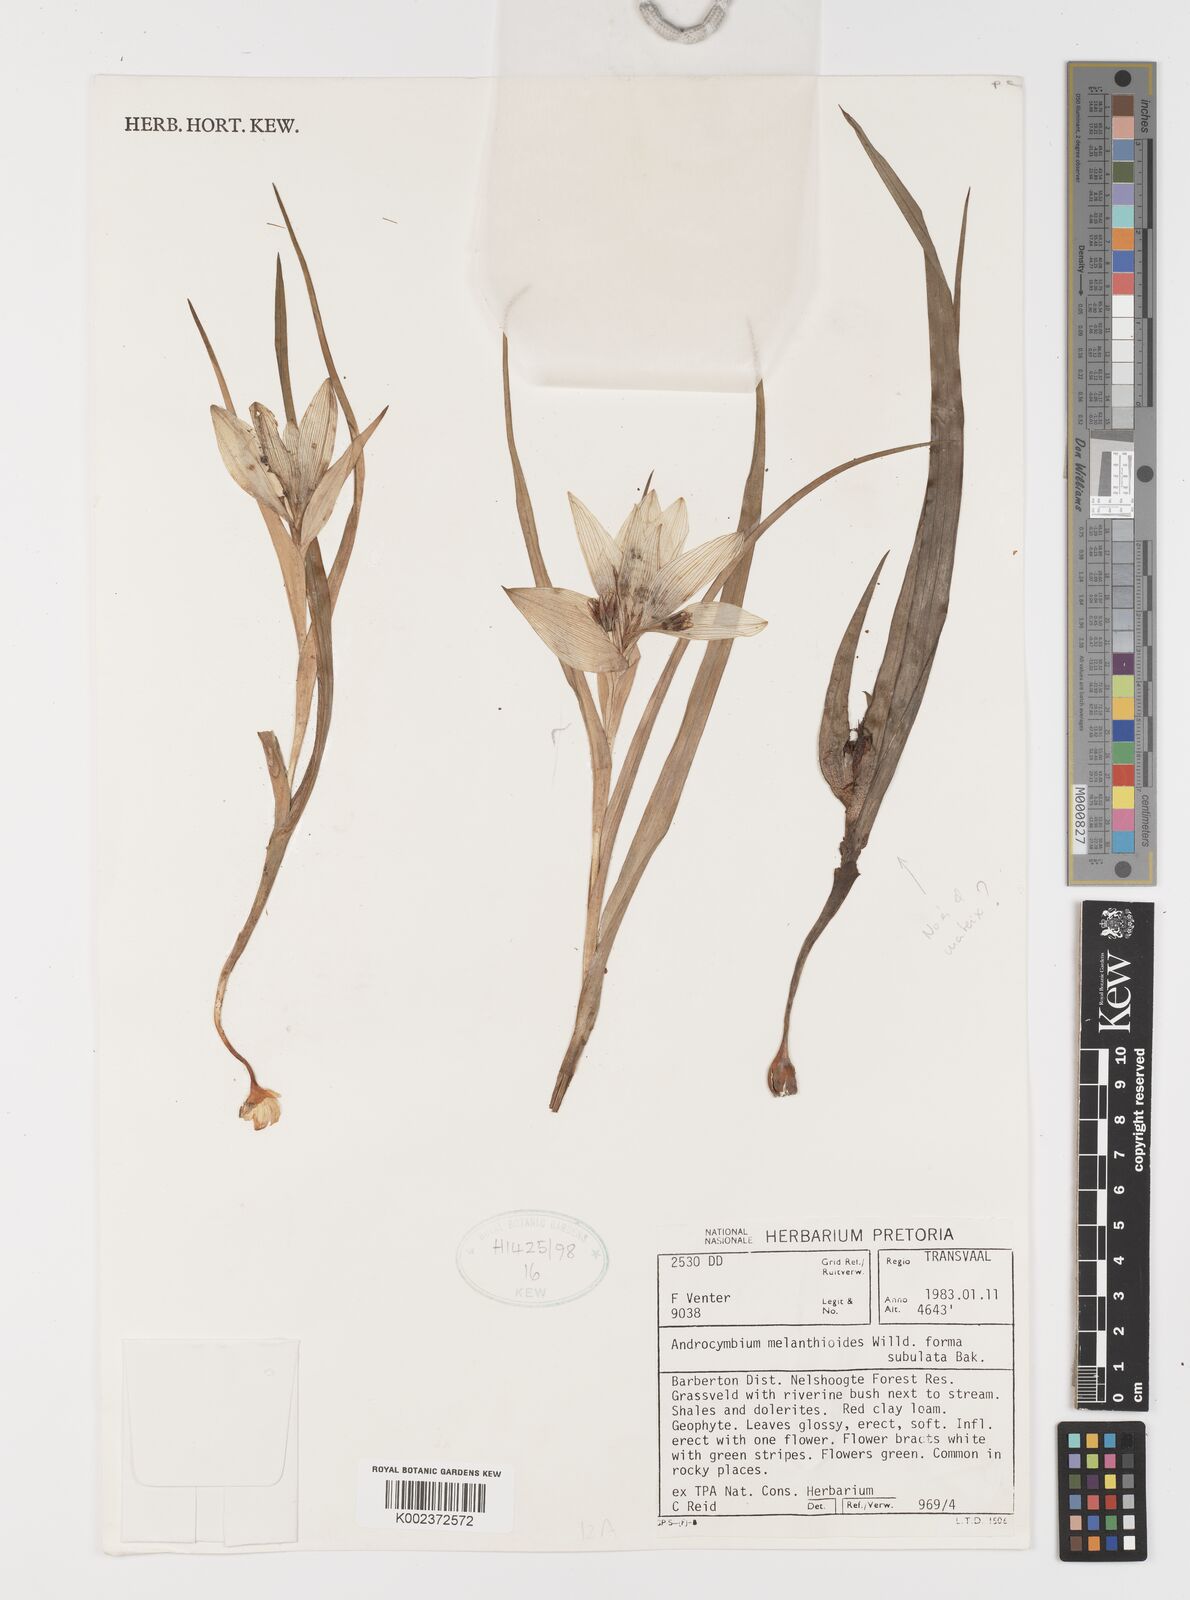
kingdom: Plantae
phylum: Tracheophyta
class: Liliopsida
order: Liliales
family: Colchicaceae
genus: Colchicum
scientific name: Colchicum melanthioides
